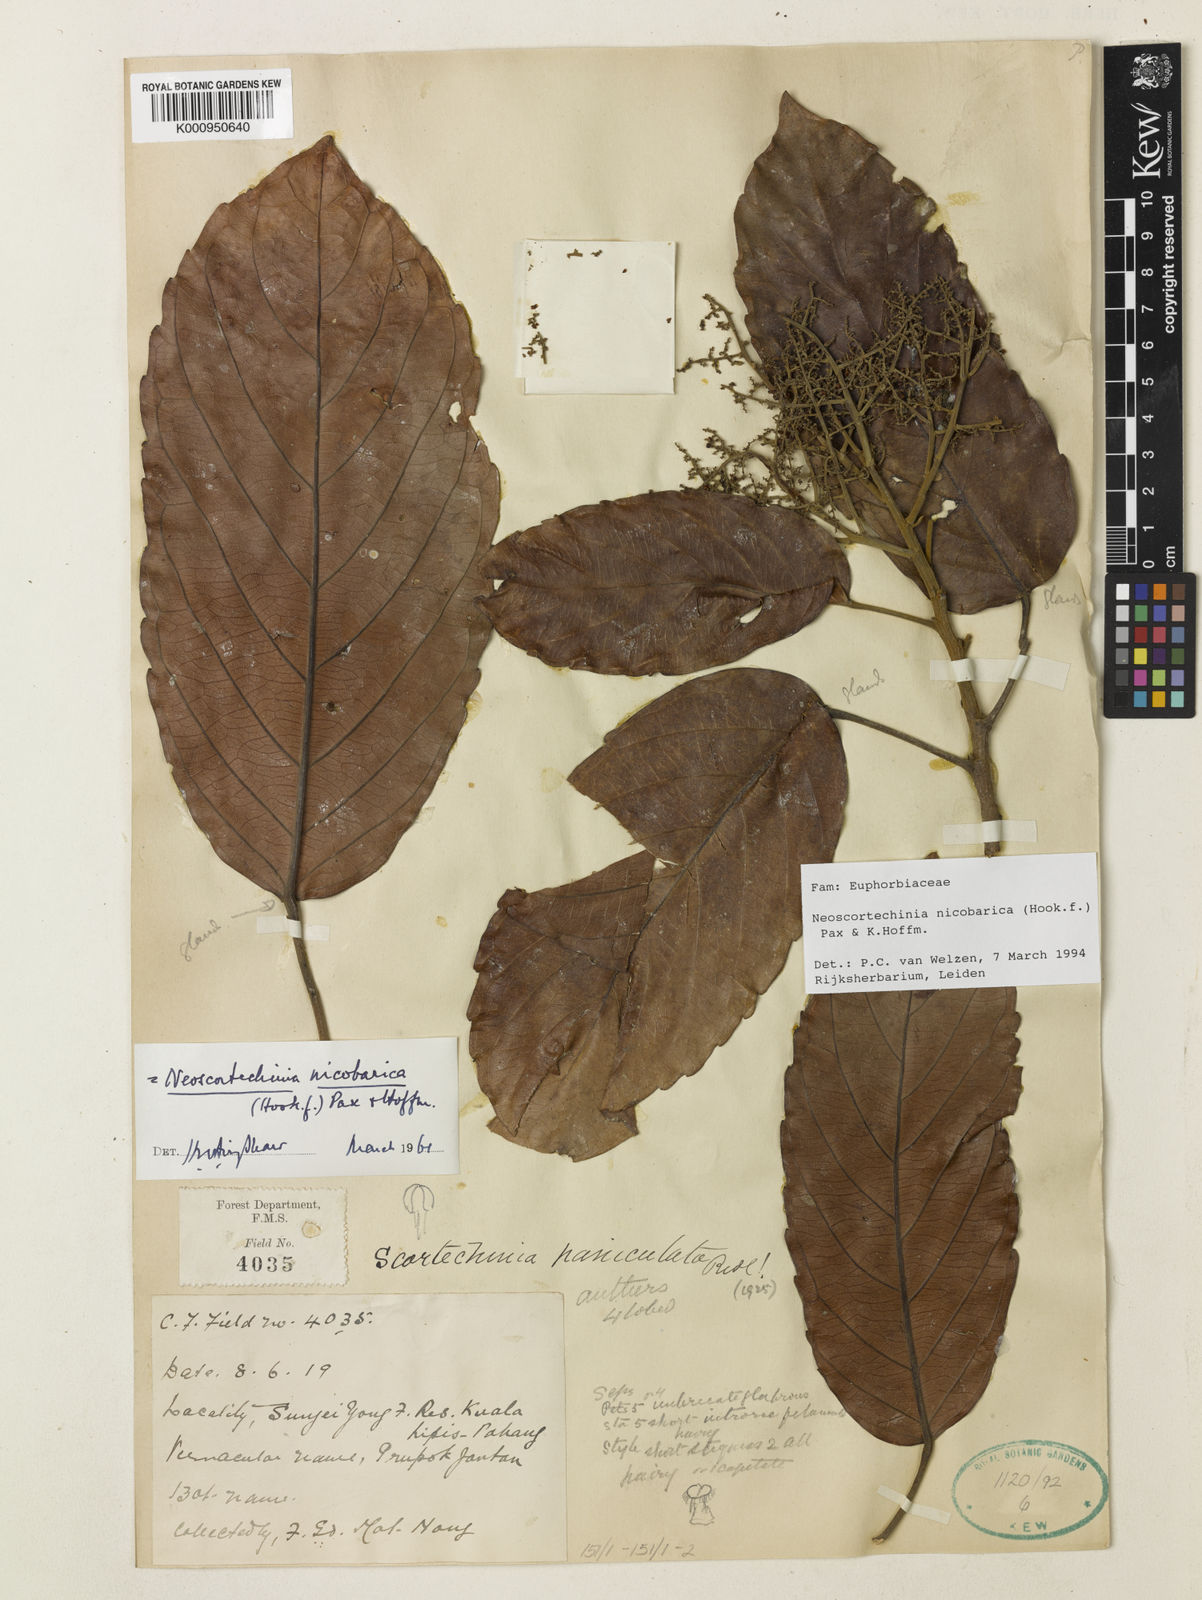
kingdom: Plantae
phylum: Tracheophyta
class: Magnoliopsida
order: Malpighiales
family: Euphorbiaceae
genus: Neoscortechinia
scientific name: Neoscortechinia nicobarica
